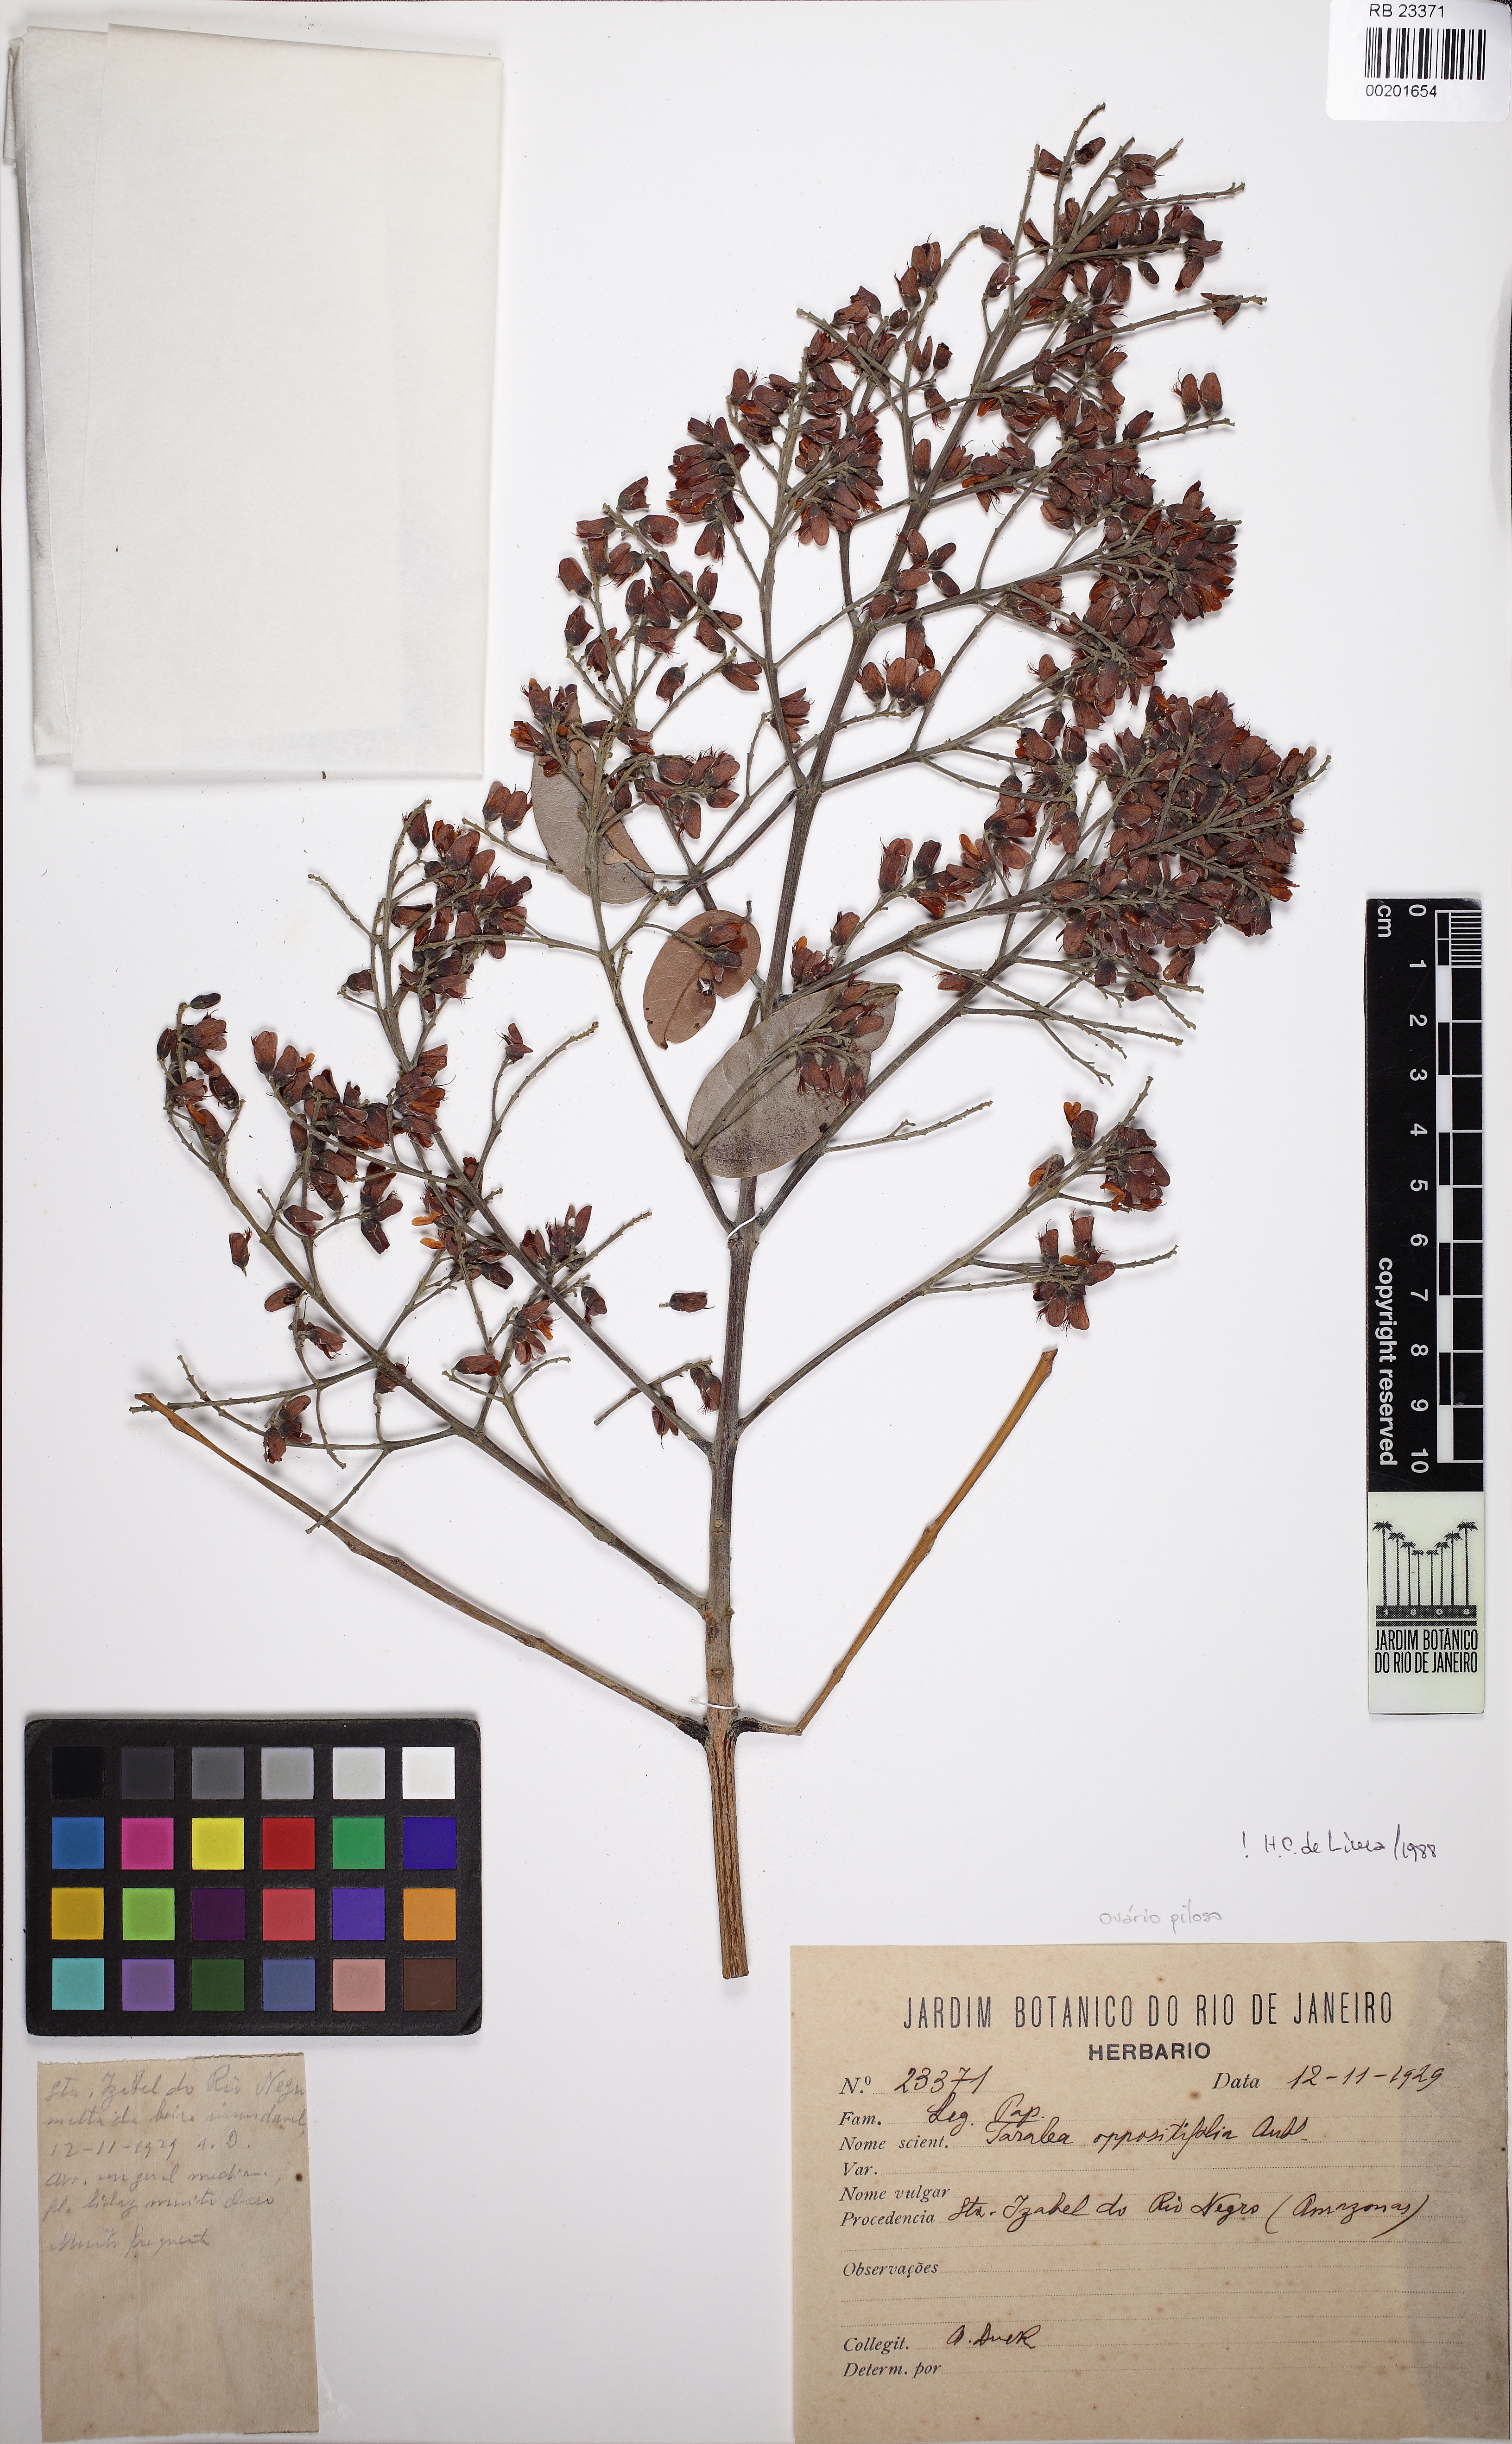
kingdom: Plantae
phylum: Tracheophyta
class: Magnoliopsida
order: Fabales
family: Fabaceae
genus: Taralea
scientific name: Taralea oppositifolia
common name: Tonka
